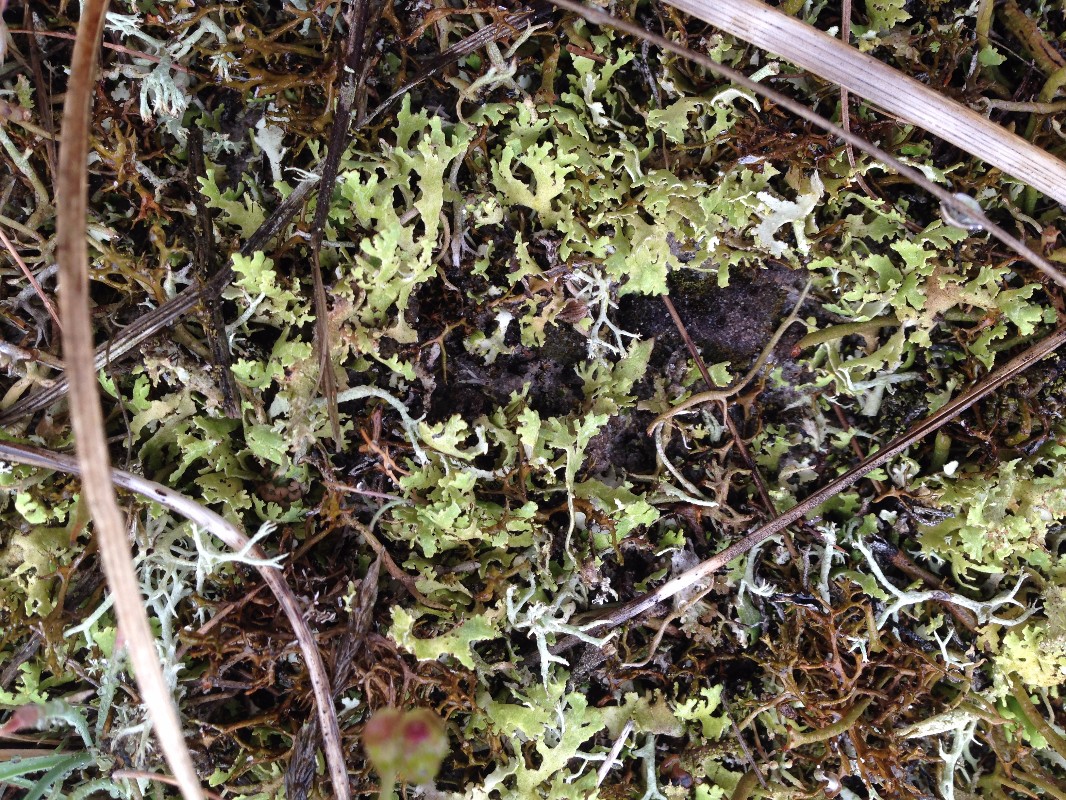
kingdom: Fungi
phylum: Ascomycota
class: Lecanoromycetes
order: Lecanorales
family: Cladoniaceae
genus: Cladonia
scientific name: Cladonia foliacea
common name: fliget bægerlav
